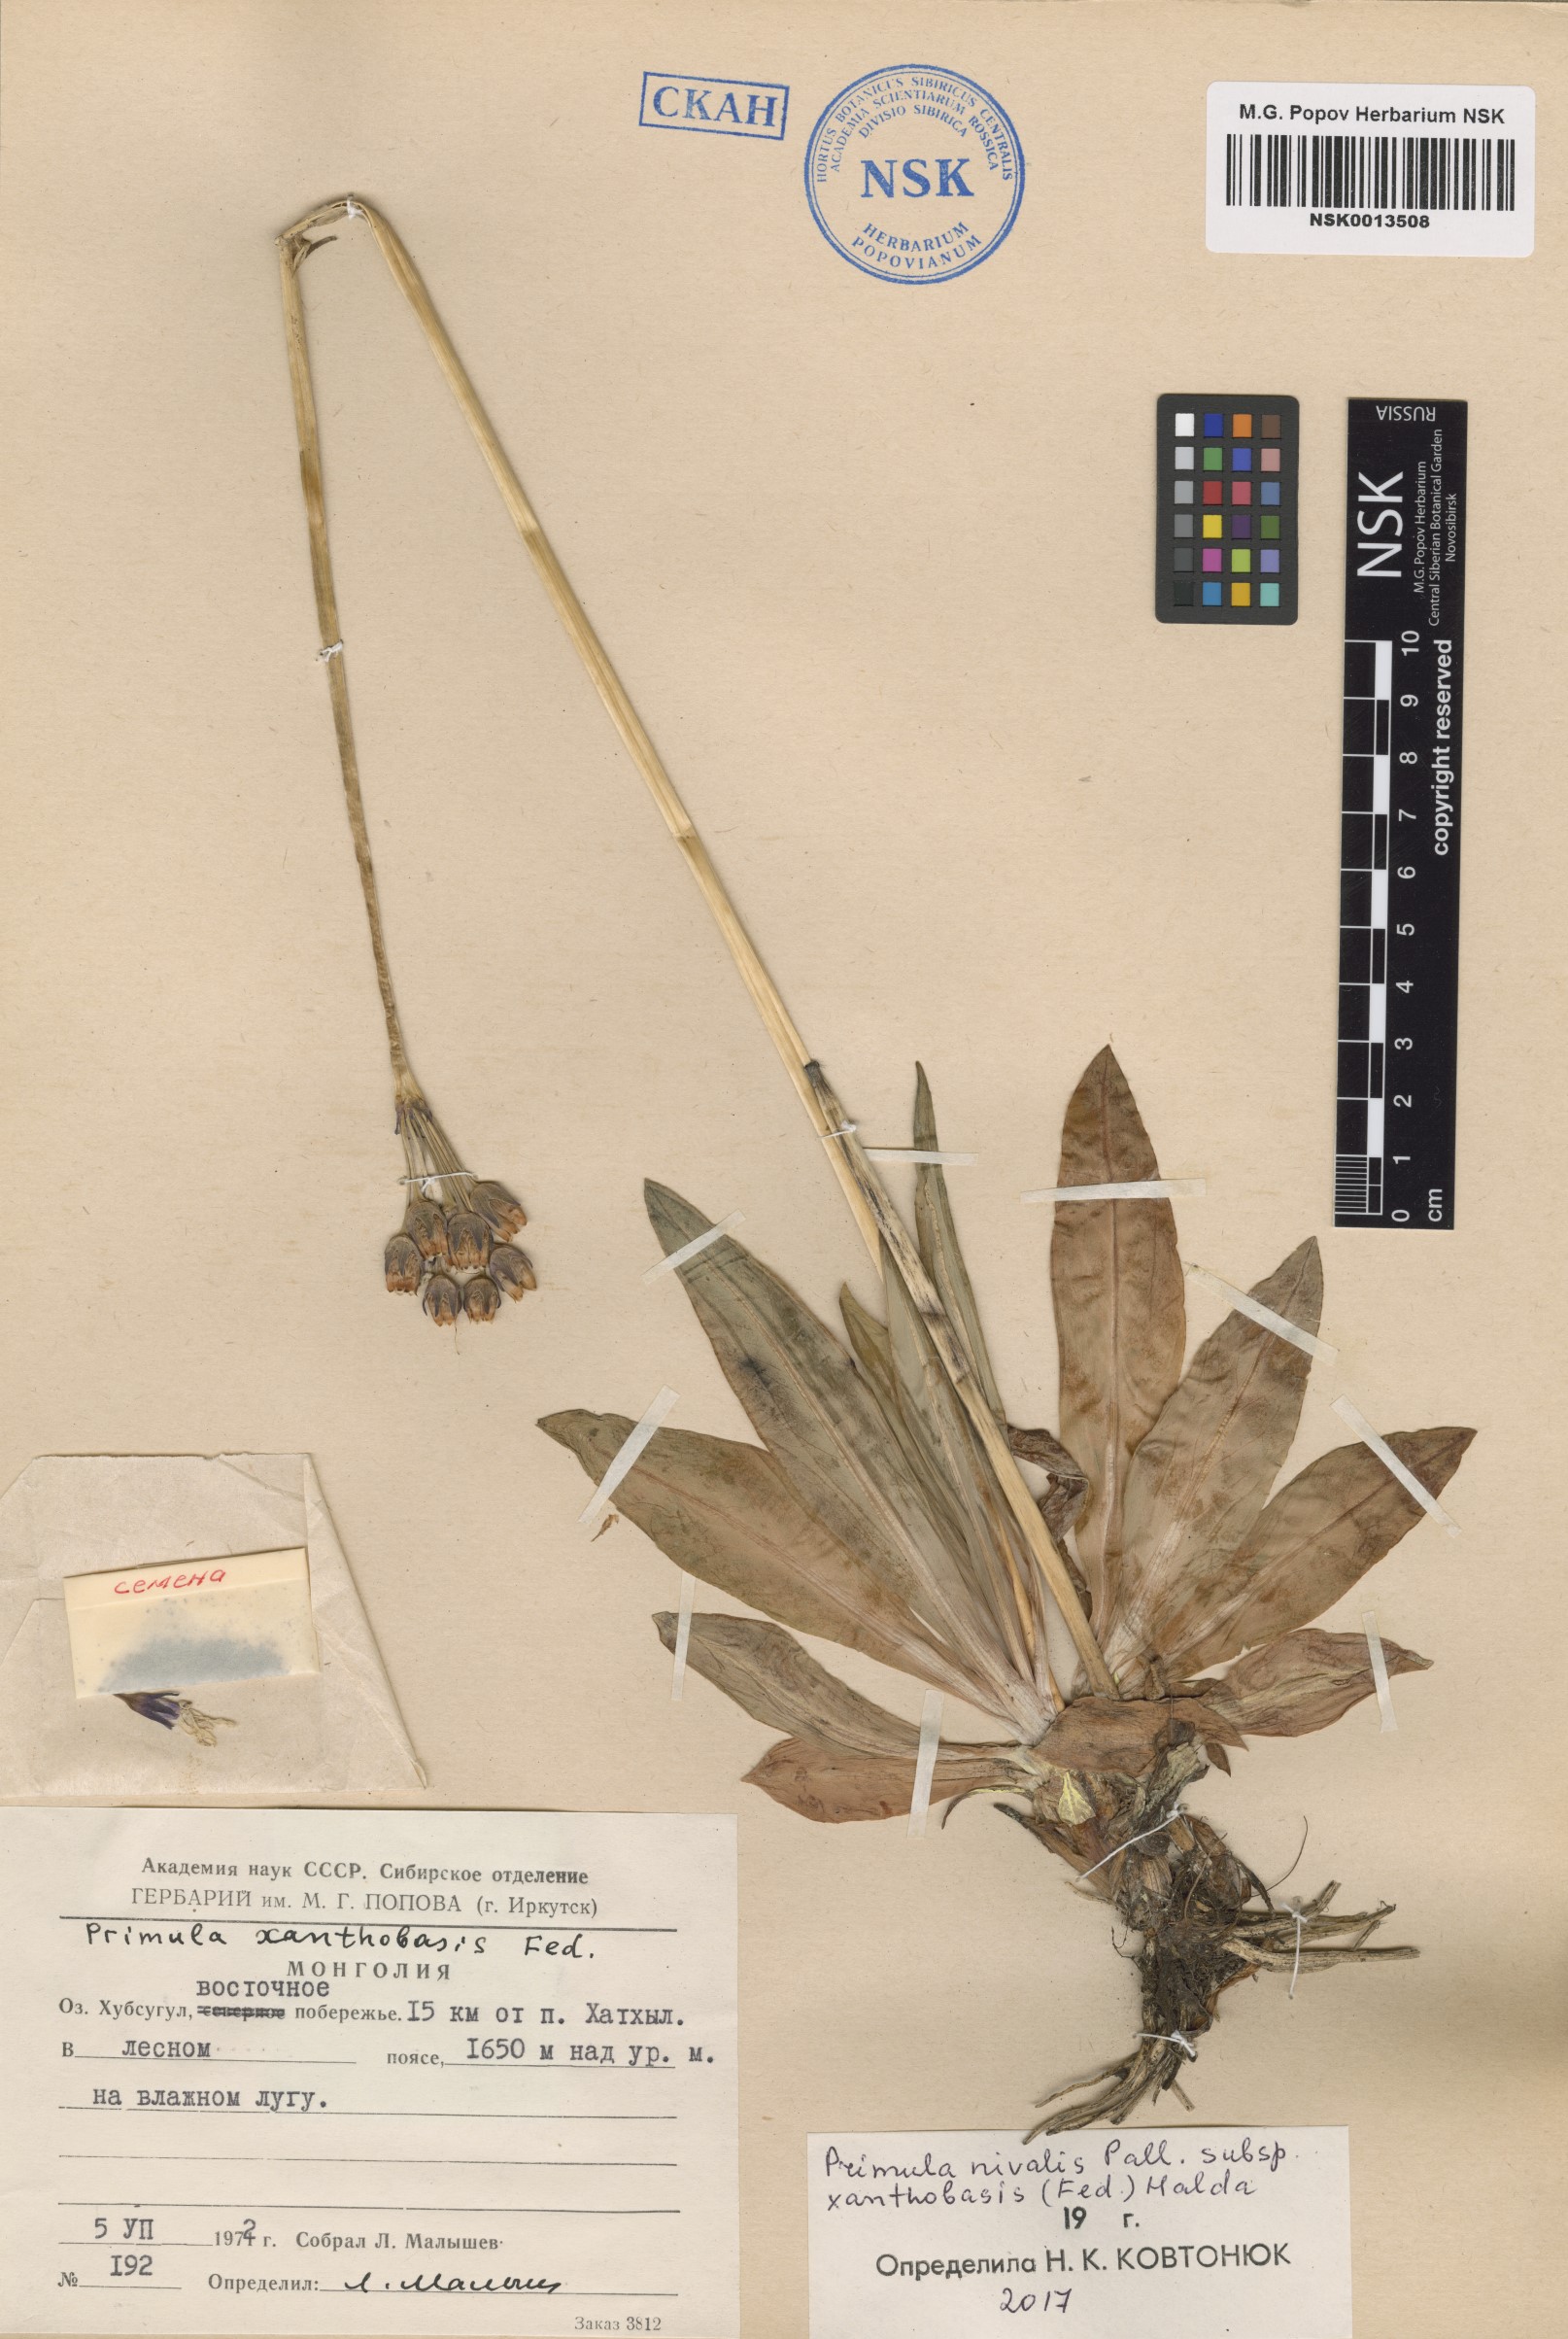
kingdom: Plantae
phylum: Tracheophyta
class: Magnoliopsida
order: Ericales
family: Primulaceae
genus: Primula
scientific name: Primula nivalis
